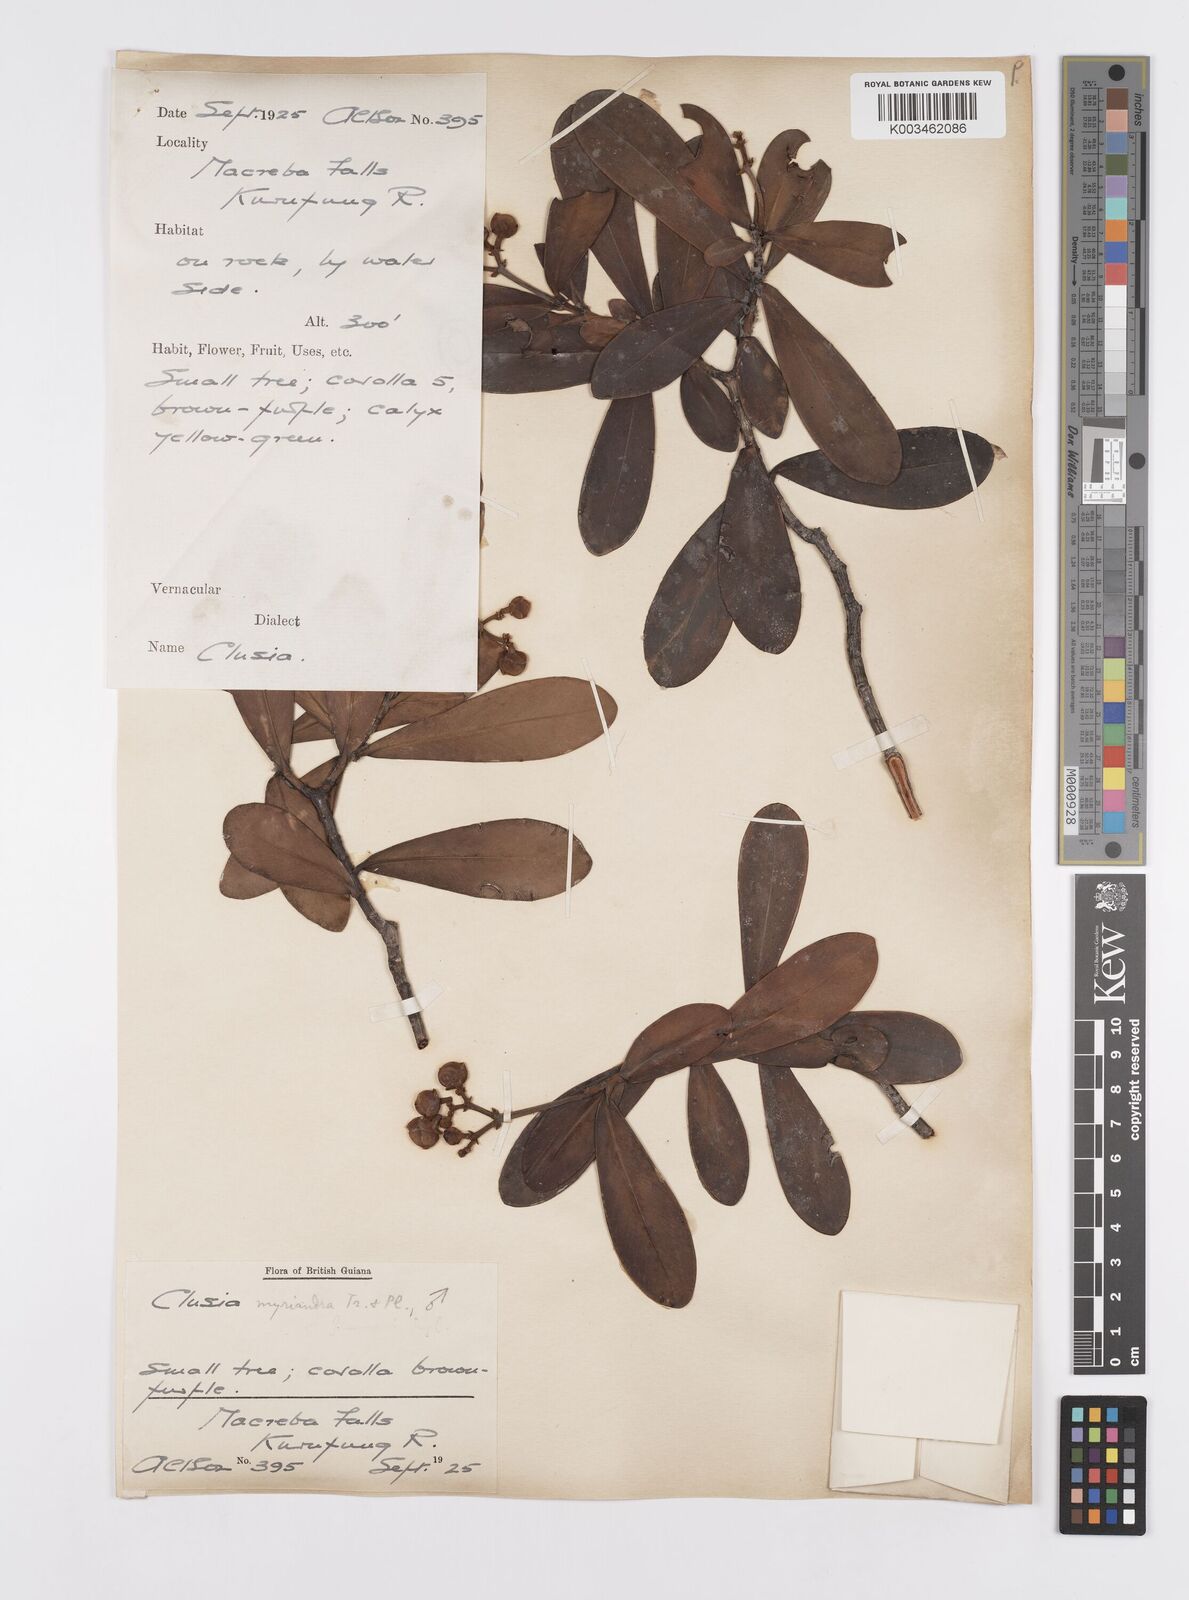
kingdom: Plantae
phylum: Tracheophyta
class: Magnoliopsida
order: Malpighiales
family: Clusiaceae
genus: Clusia
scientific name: Clusia myriandra
